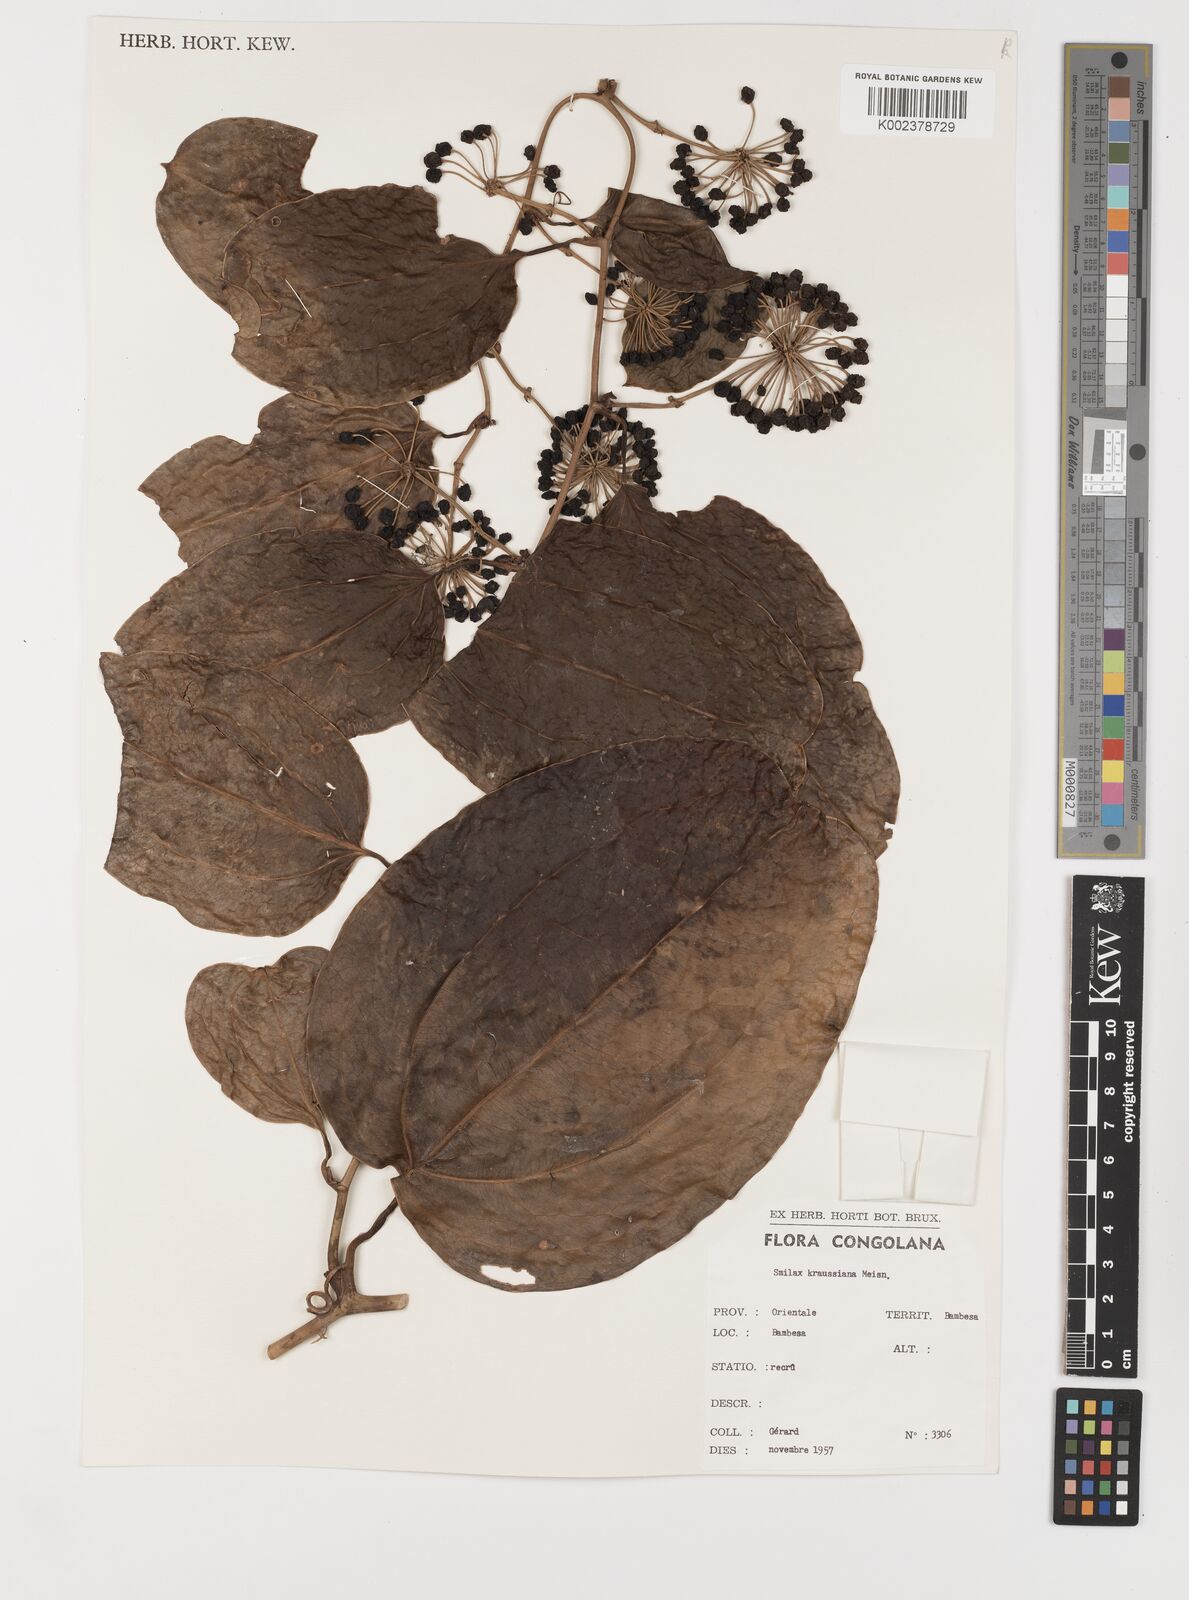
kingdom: Plantae
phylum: Tracheophyta
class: Liliopsida
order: Liliales
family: Smilacaceae
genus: Smilax
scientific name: Smilax anceps
